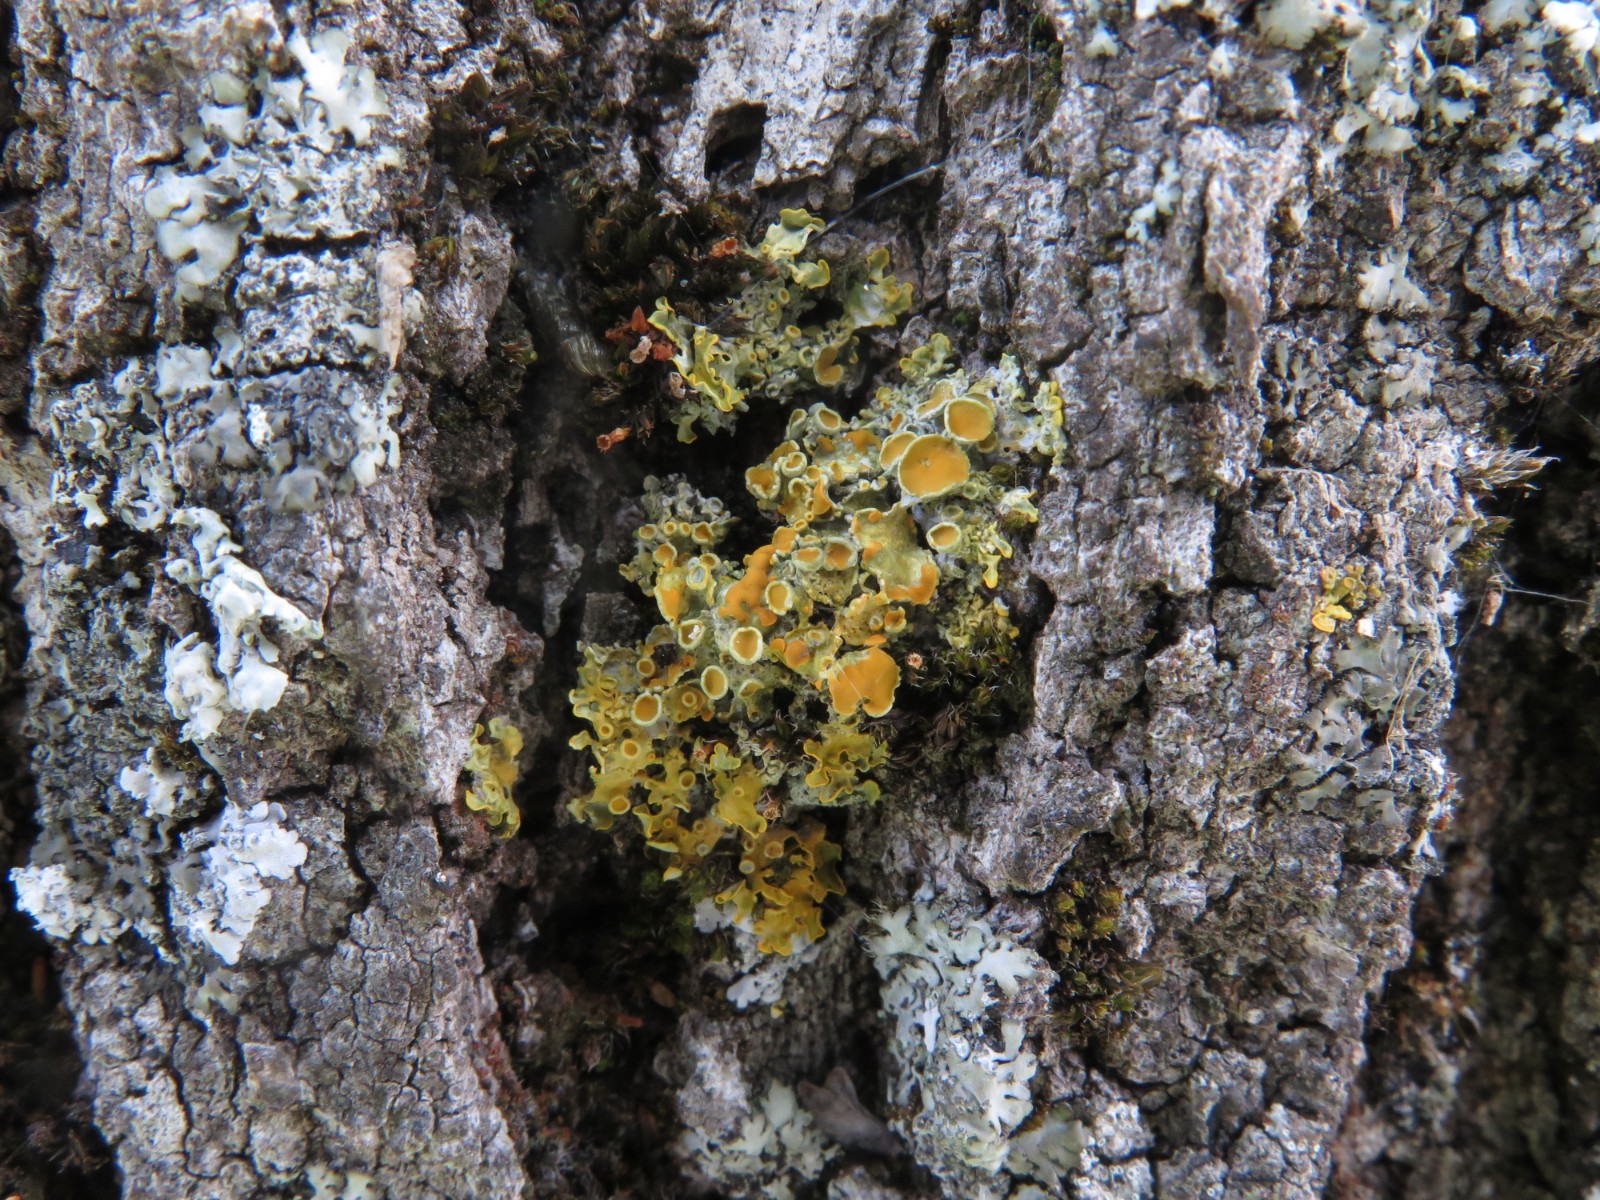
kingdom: Fungi
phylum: Ascomycota
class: Lecanoromycetes
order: Teloschistales
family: Teloschistaceae
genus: Xanthoria
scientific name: Xanthoria parietina
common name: almindelig væggelav
